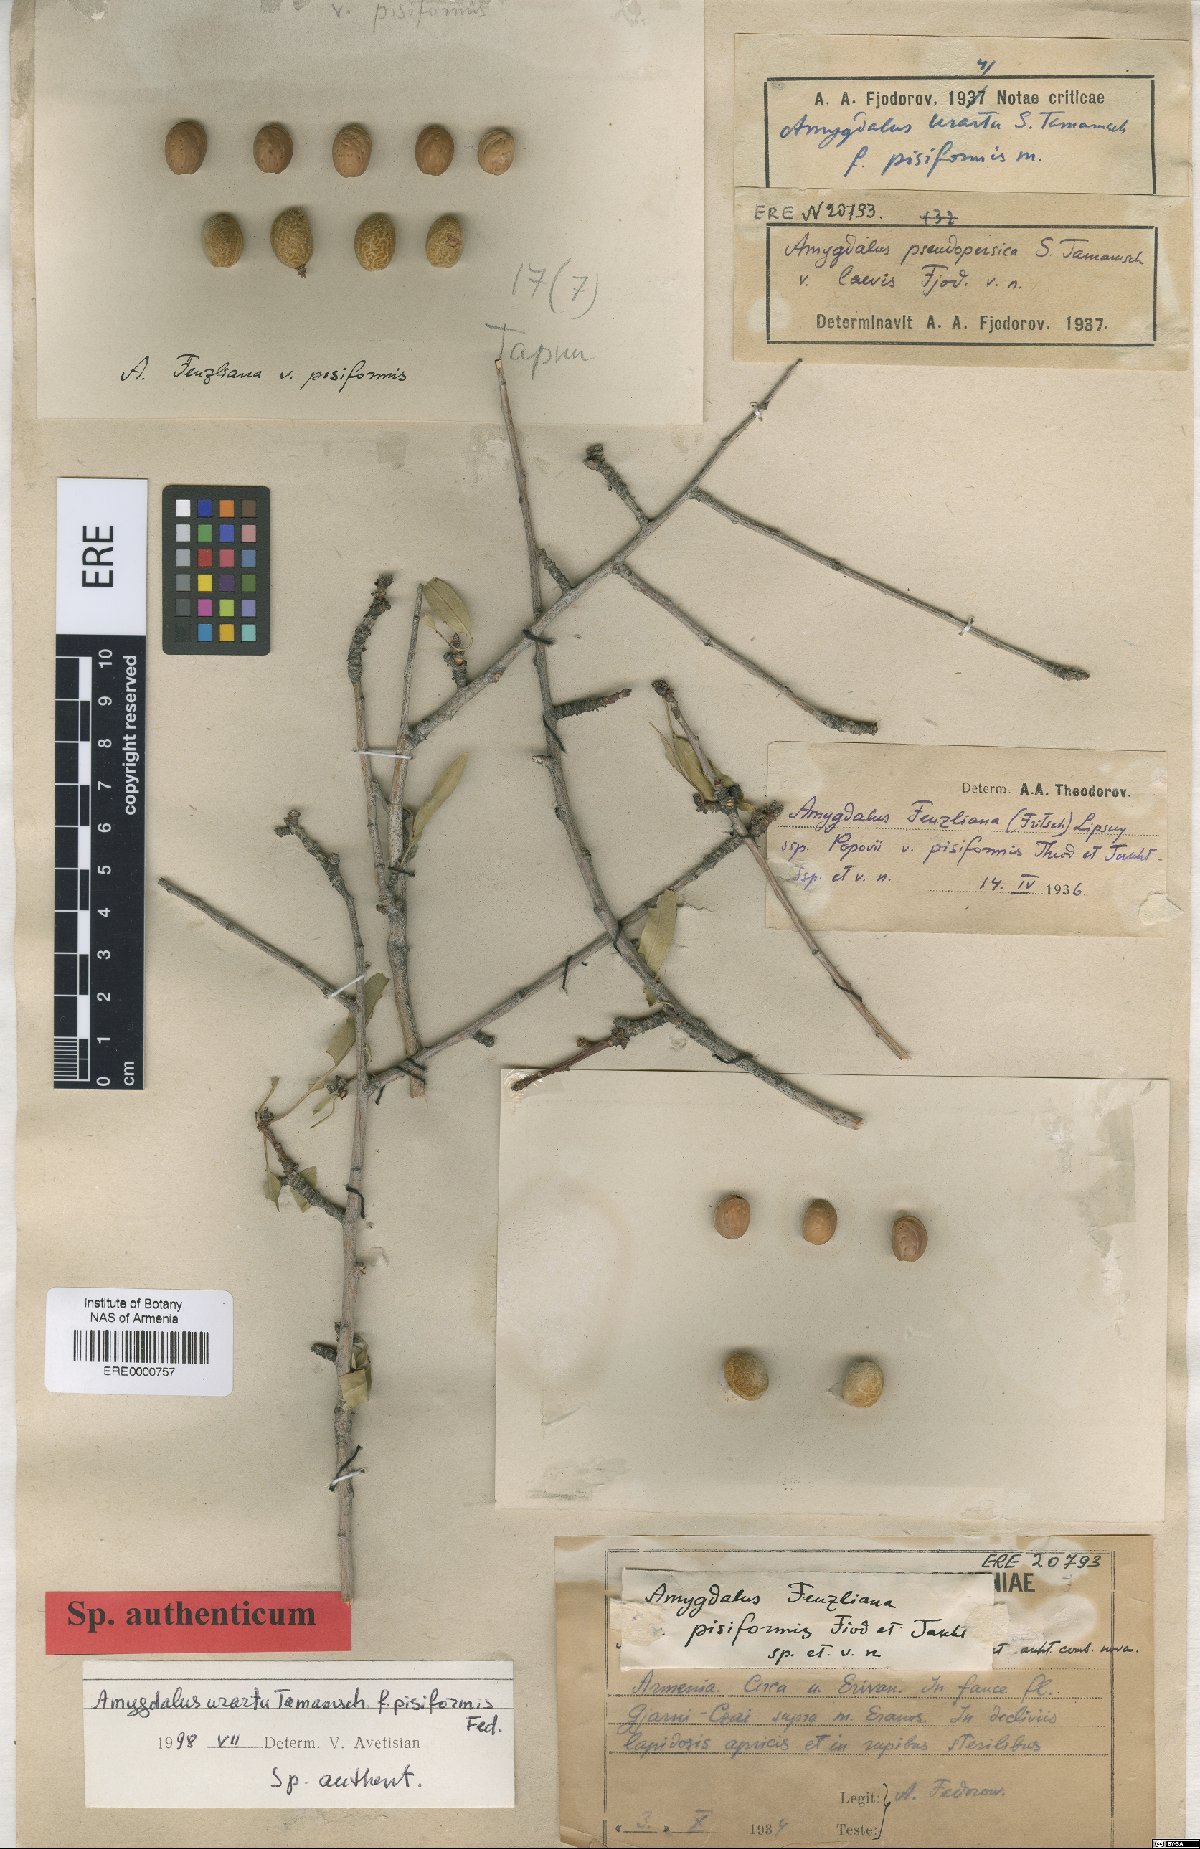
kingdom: Plantae
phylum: Tracheophyta
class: Magnoliopsida
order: Rosales
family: Rosaceae
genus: Prunus
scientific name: Prunus urartu
